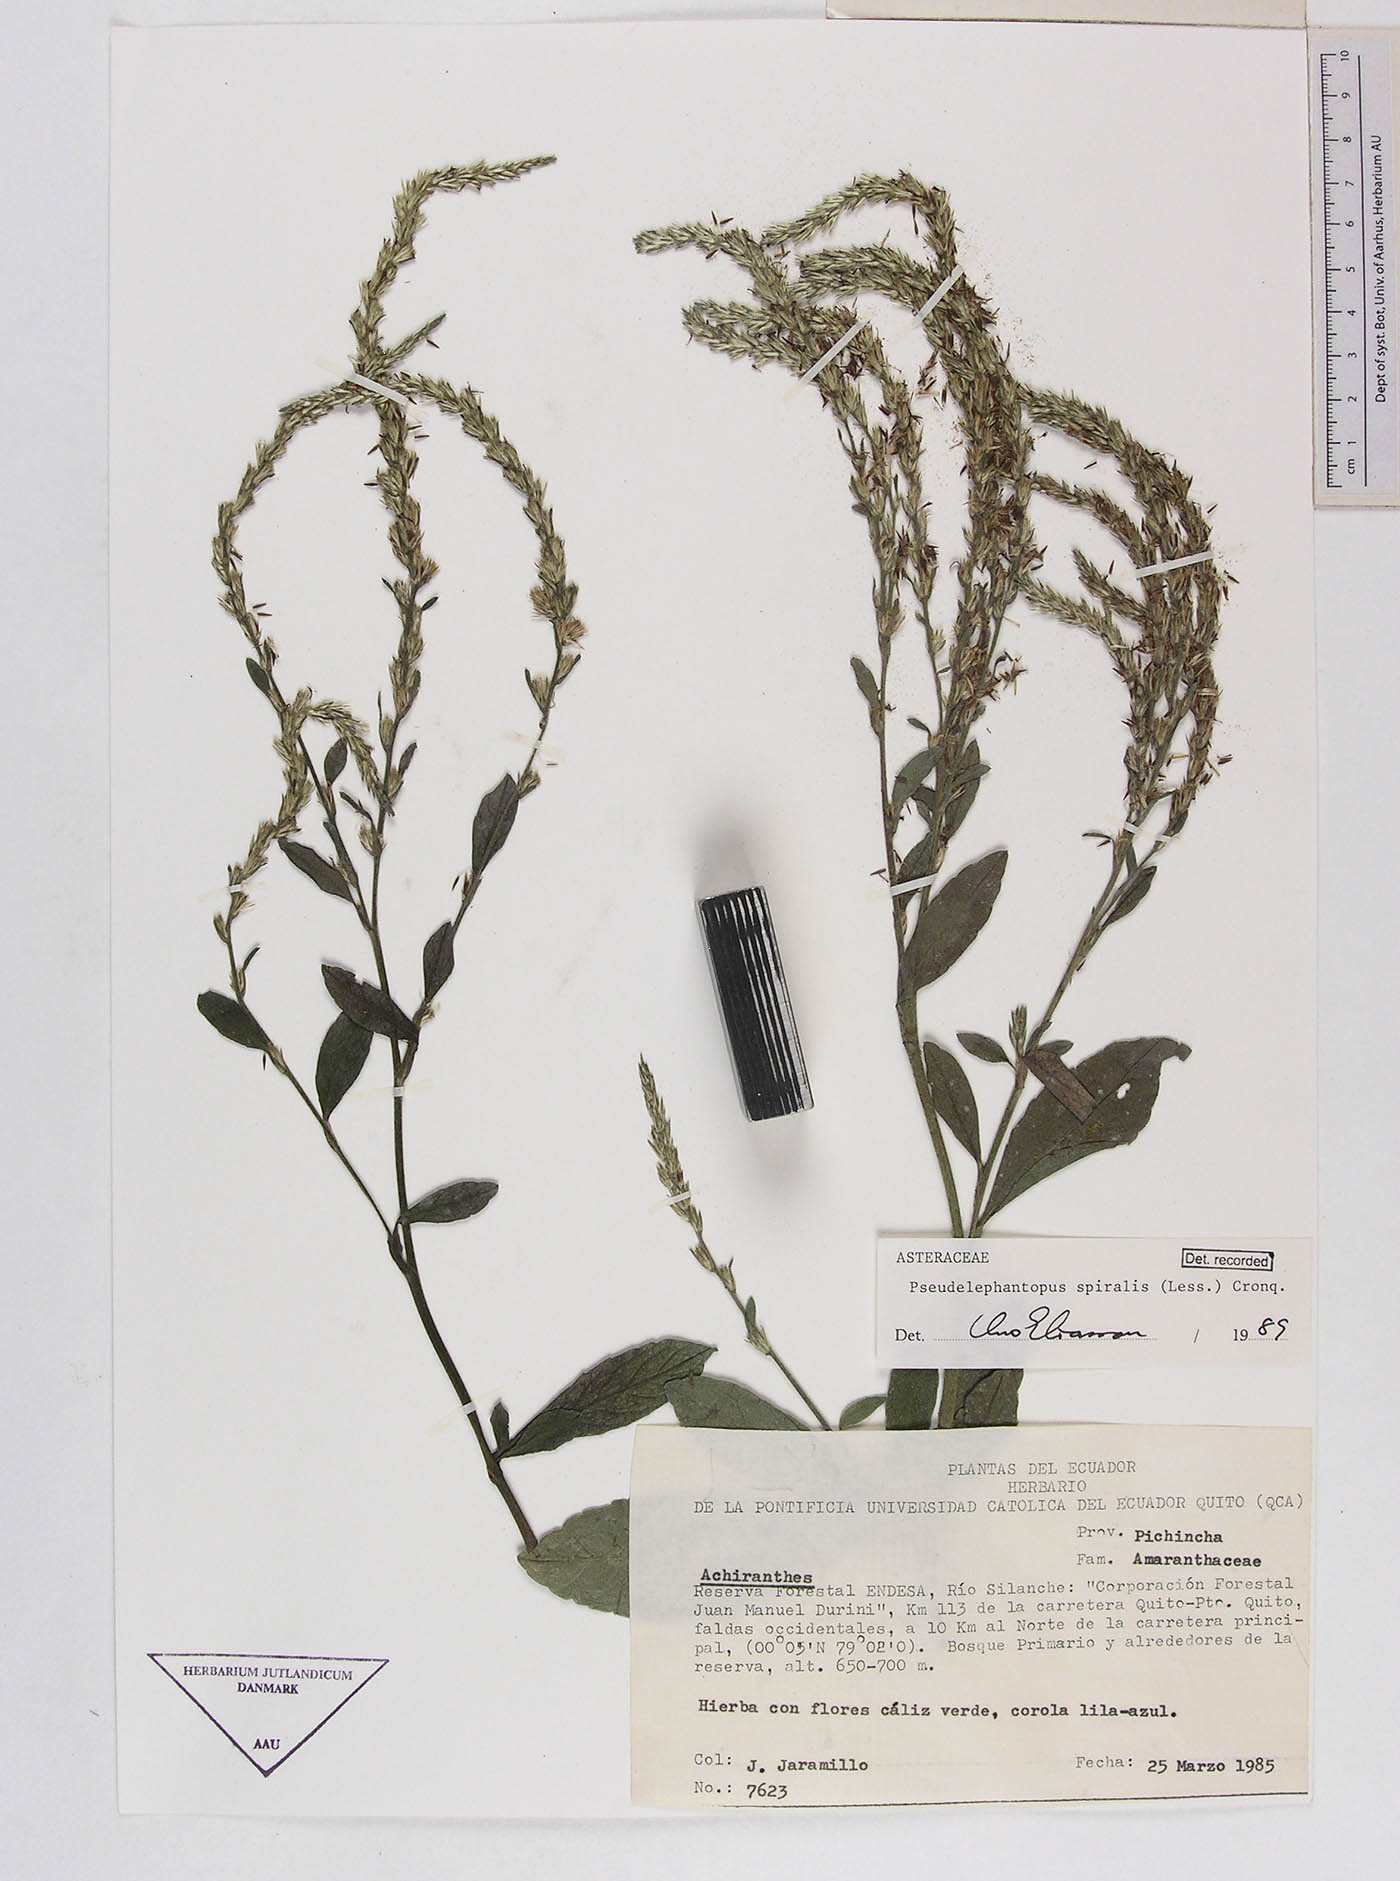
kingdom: Plantae
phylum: Tracheophyta
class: Magnoliopsida
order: Asterales
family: Asteraceae
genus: Pseudelephantopus
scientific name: Pseudelephantopus spiralis
